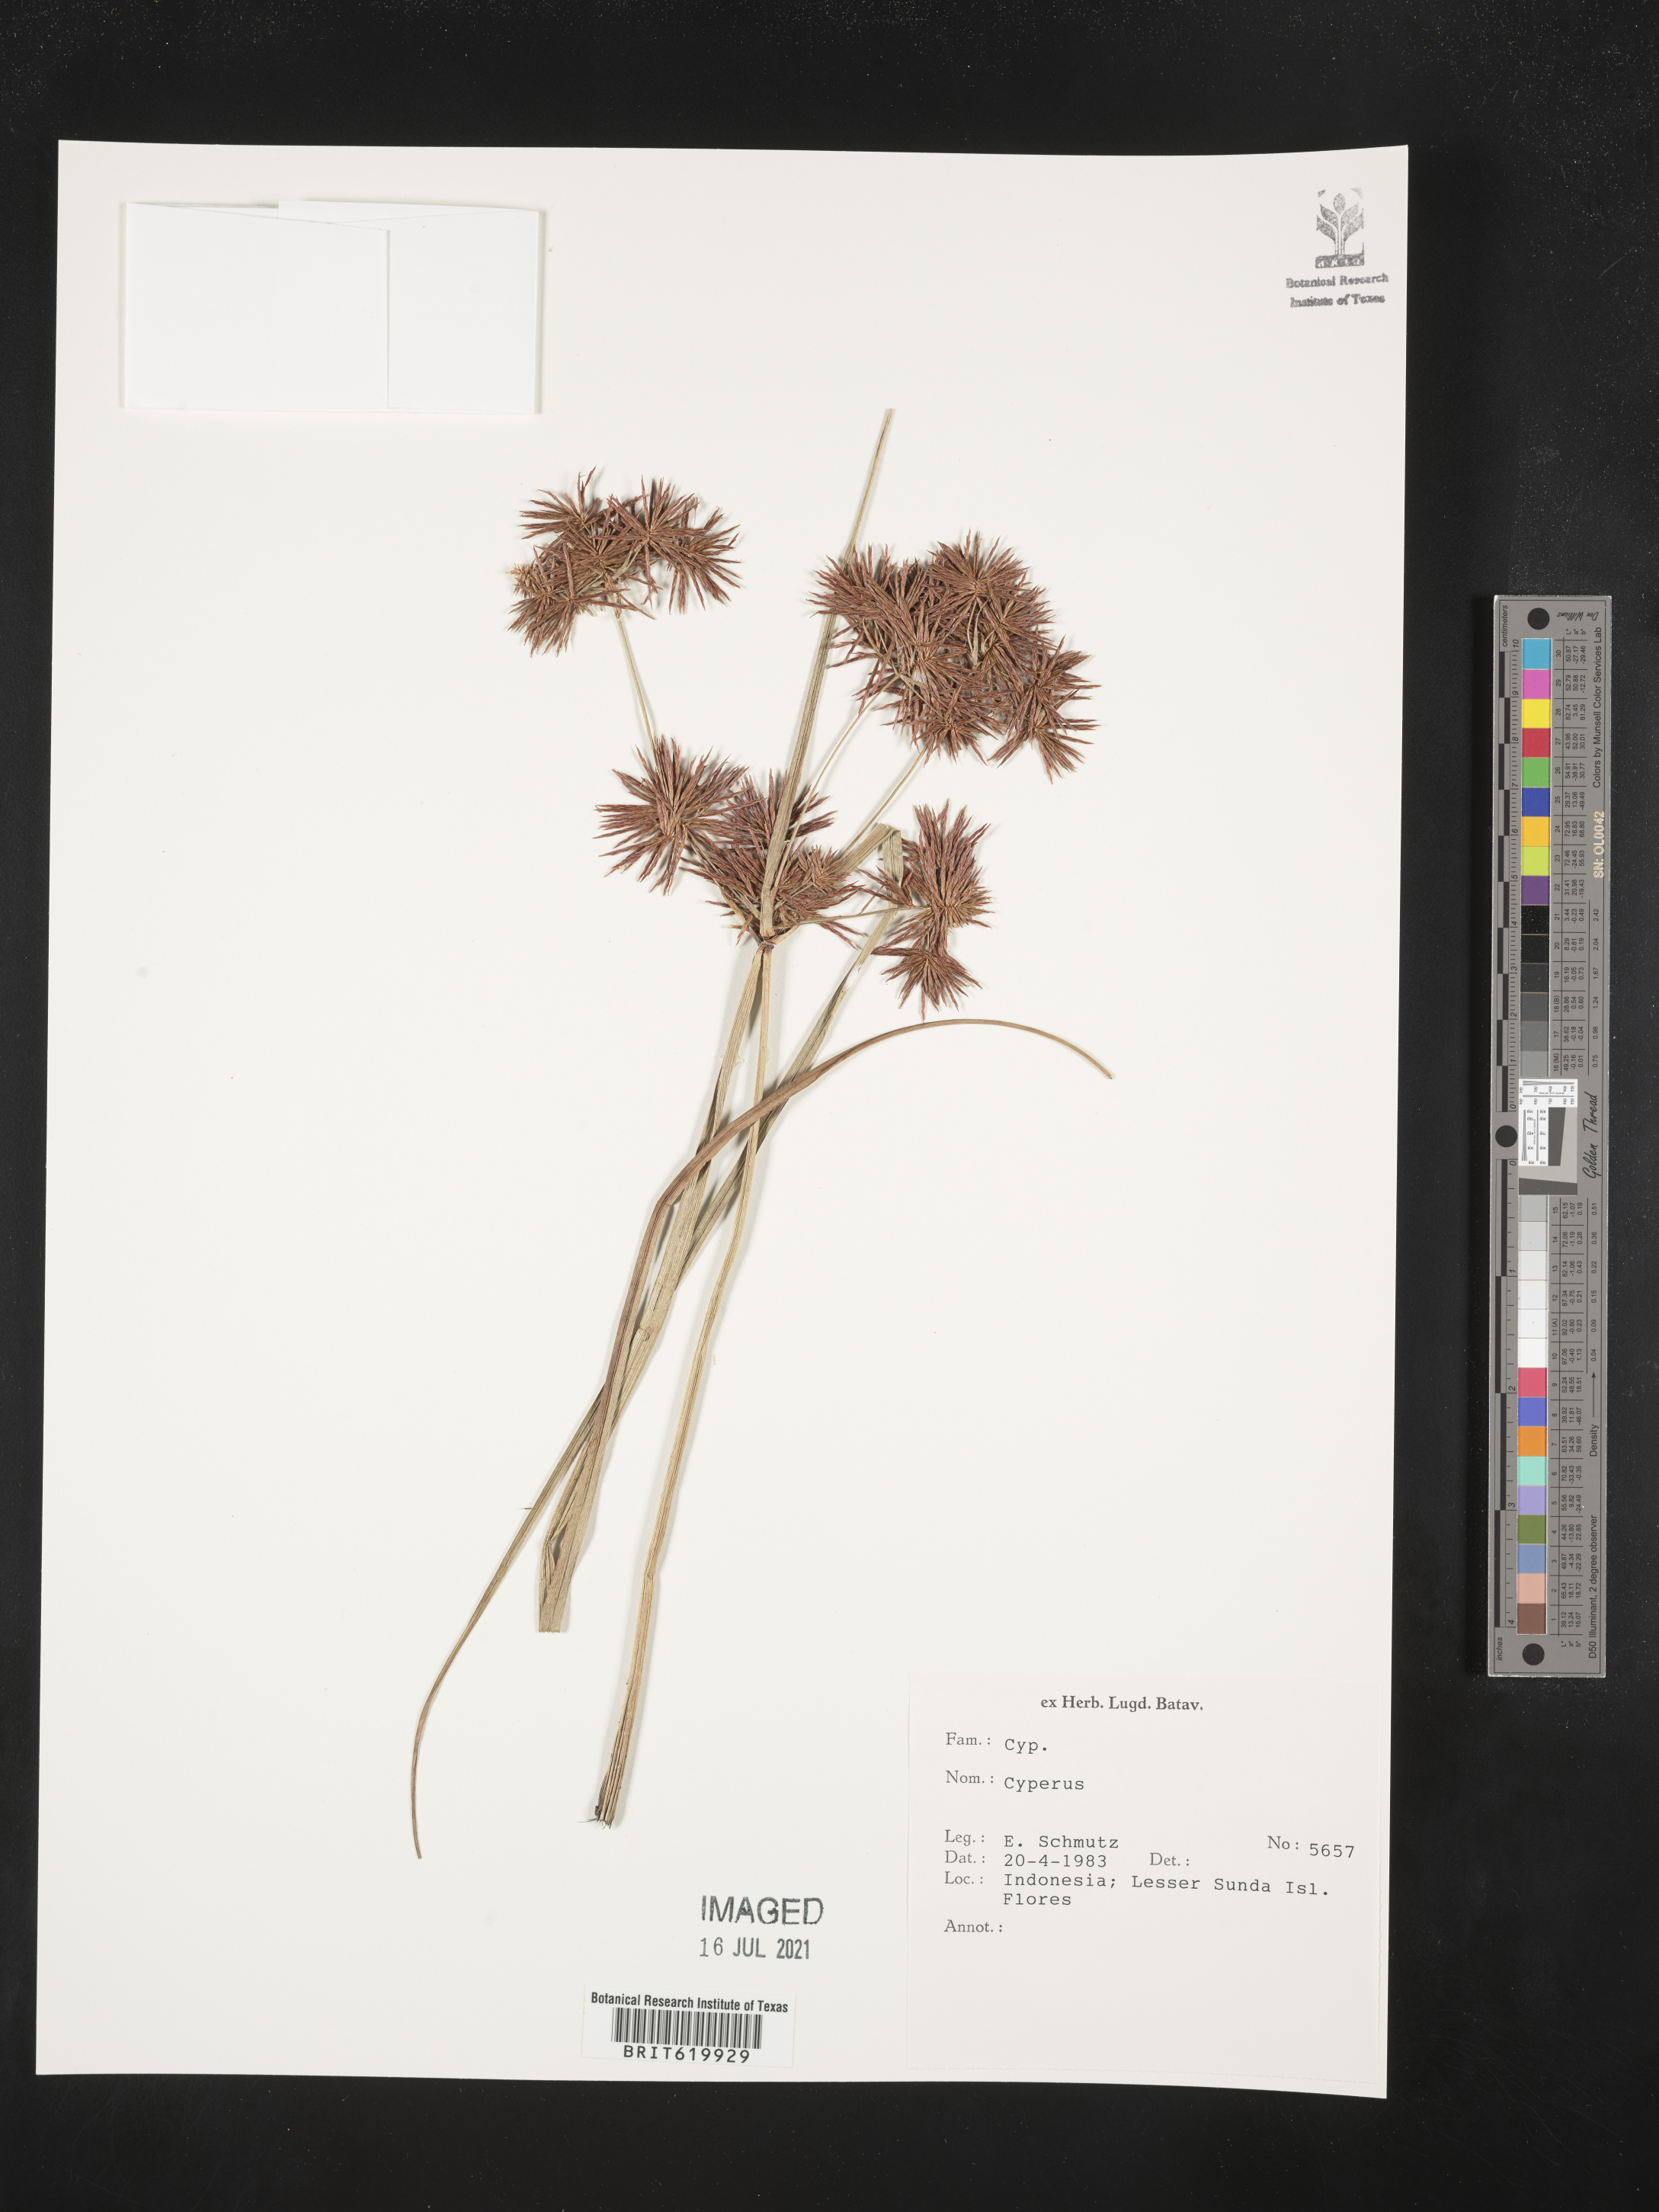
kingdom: Plantae
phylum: Tracheophyta
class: Liliopsida
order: Poales
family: Cyperaceae
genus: Cyperus
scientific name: Cyperus
